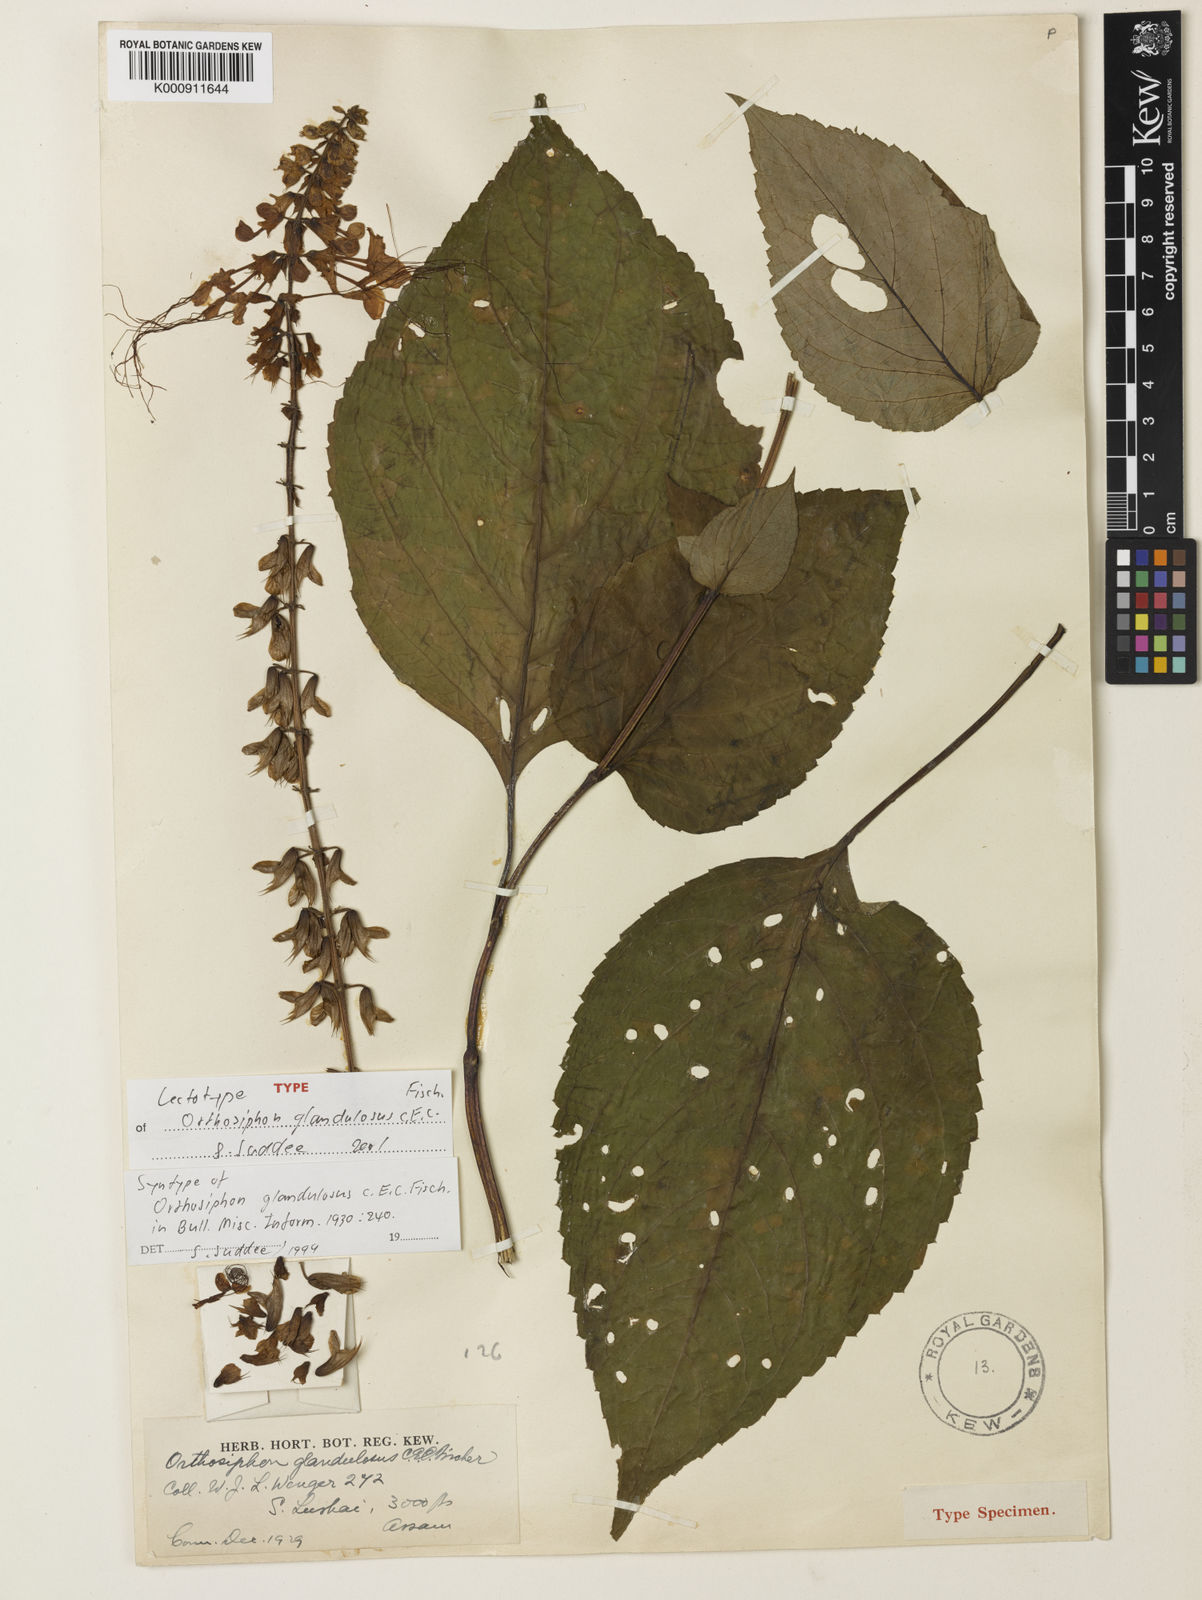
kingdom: Plantae
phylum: Tracheophyta
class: Magnoliopsida
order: Lamiales
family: Lamiaceae
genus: Orthosiphon
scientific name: Orthosiphon glandulosus
